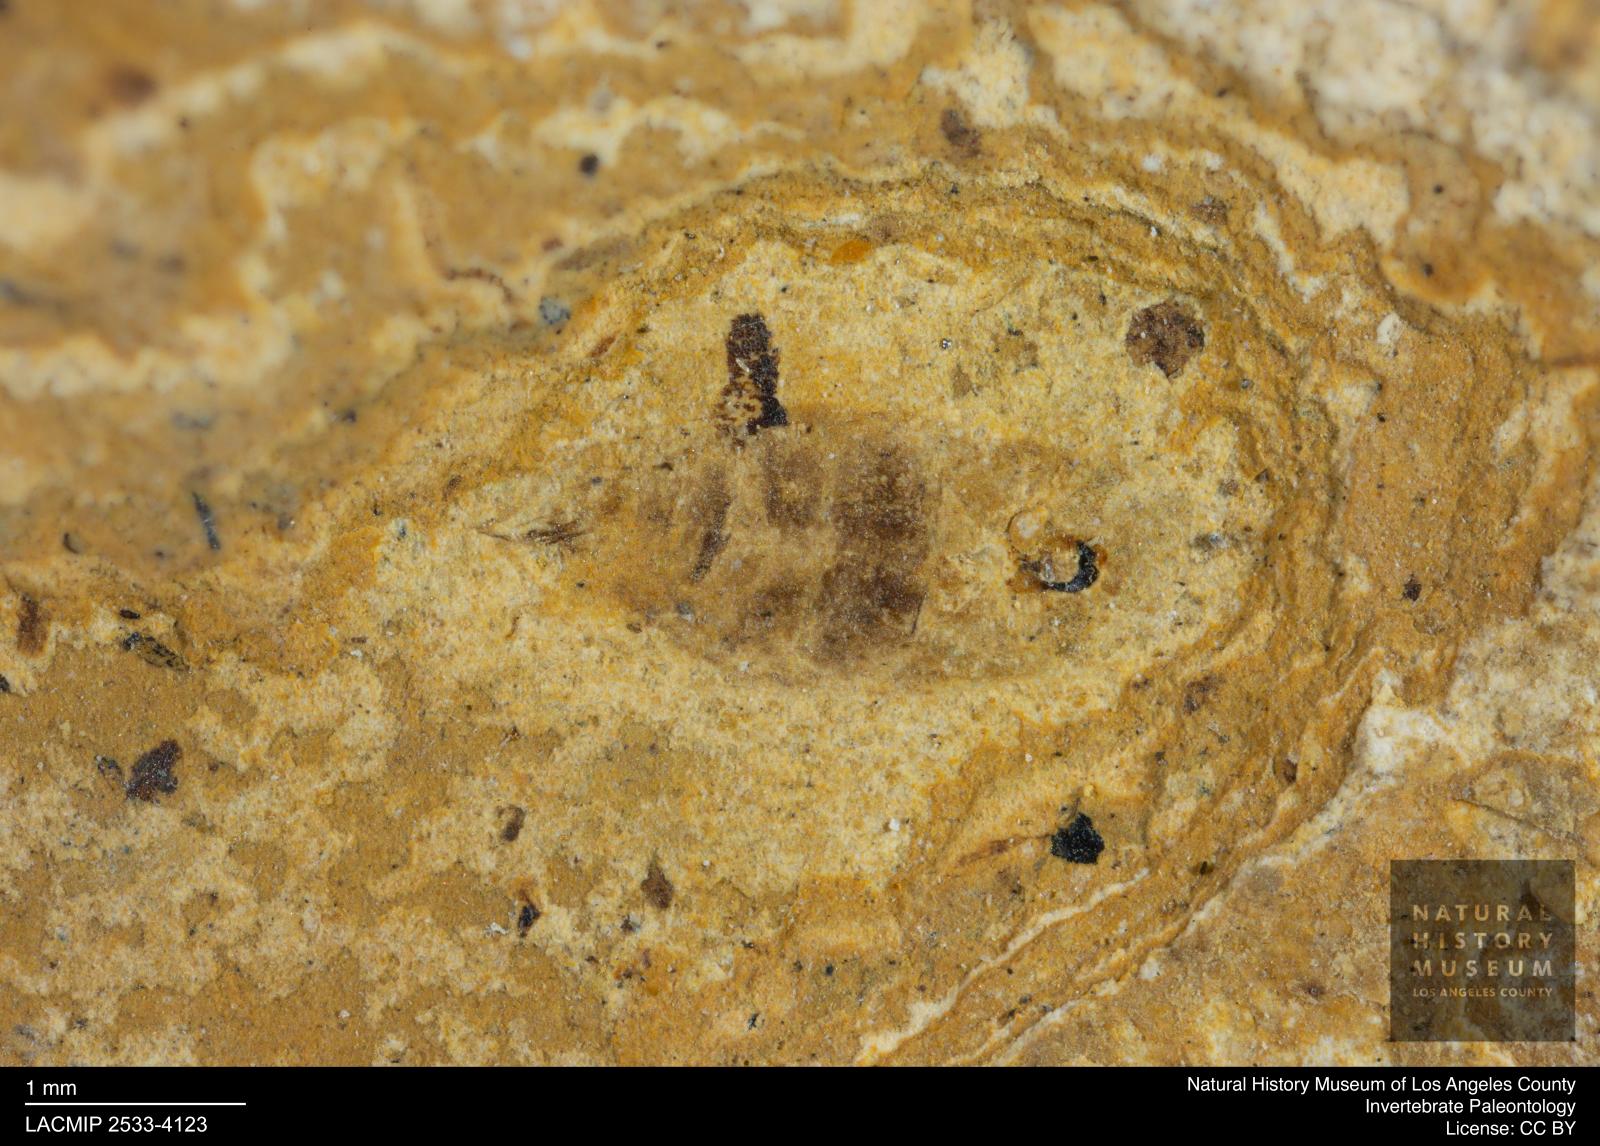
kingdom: Animalia
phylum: Arthropoda
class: Insecta
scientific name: Insecta
